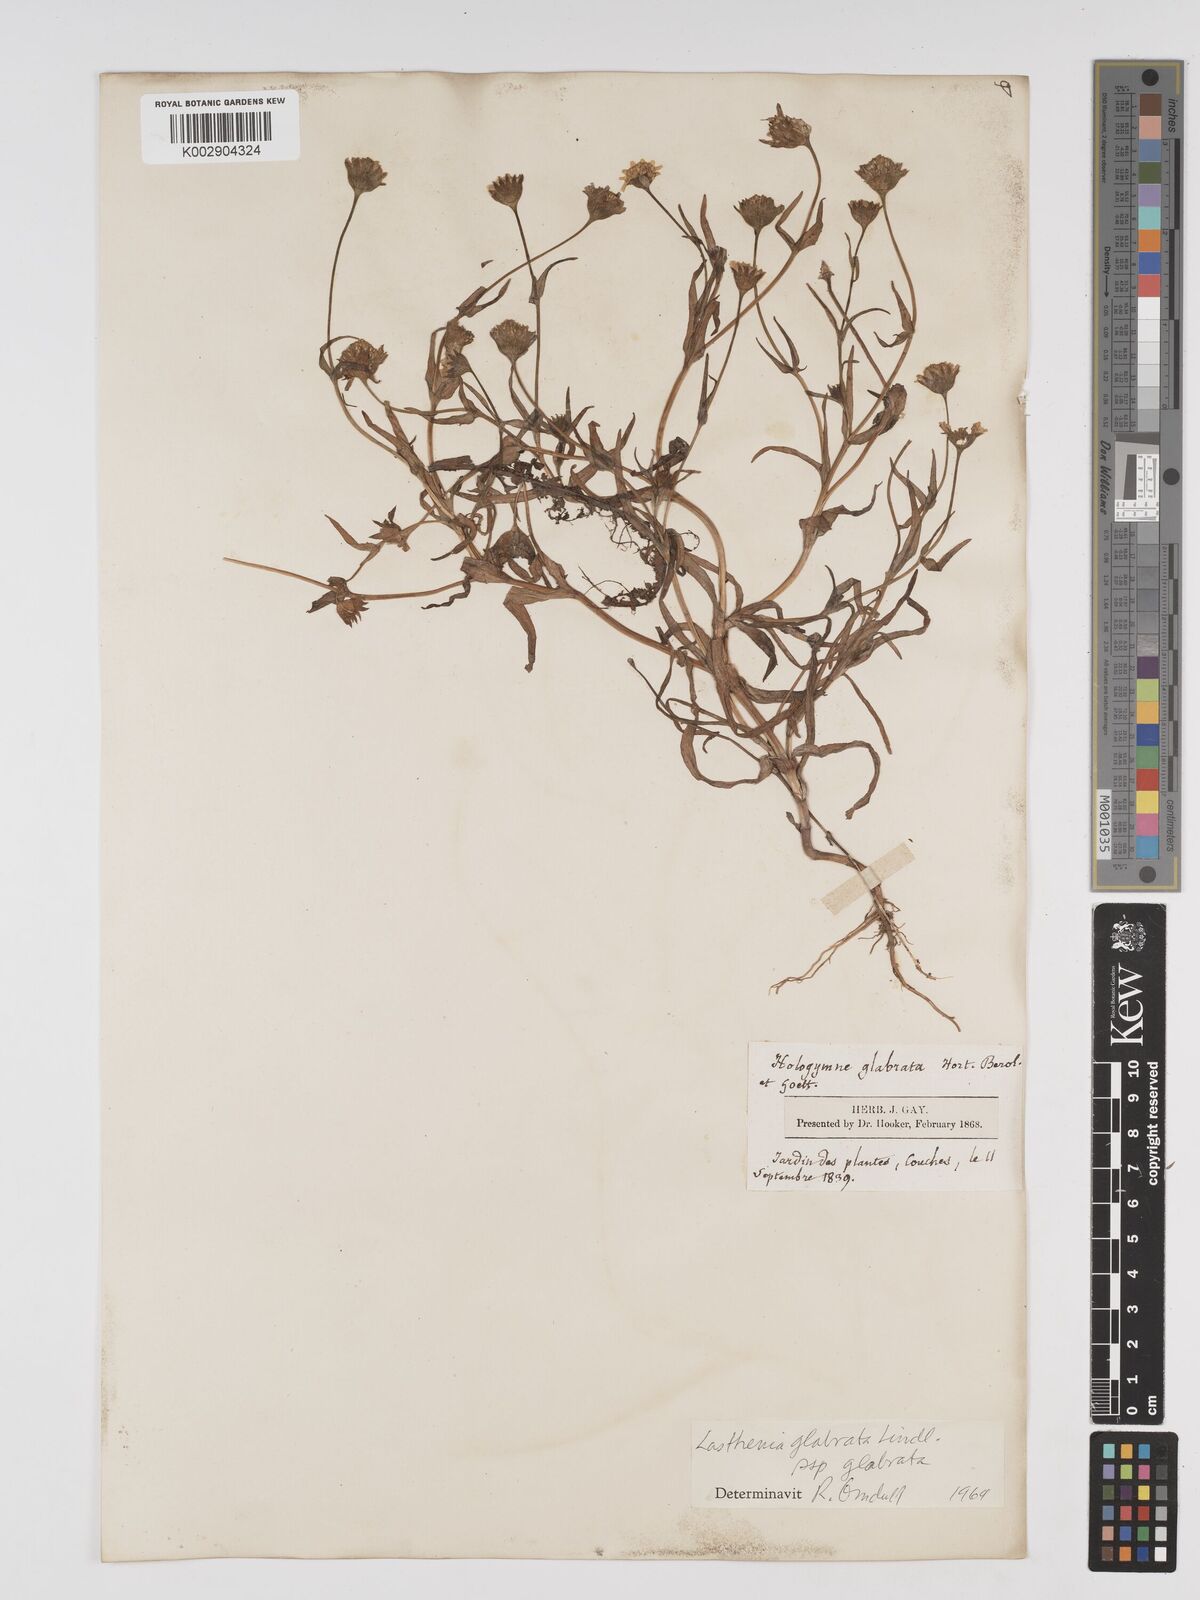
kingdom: Plantae
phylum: Tracheophyta
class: Magnoliopsida
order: Asterales
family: Asteraceae
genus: Lasthenia
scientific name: Lasthenia glabrata
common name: Yellow-ray lasthenia
